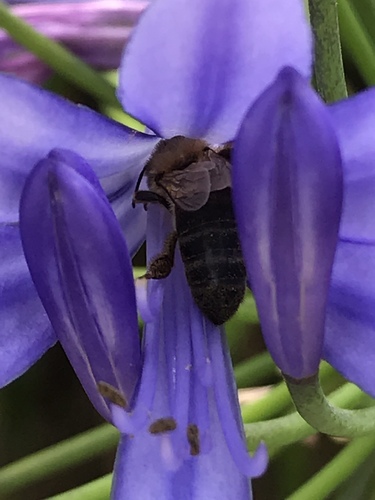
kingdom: Animalia
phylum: Arthropoda
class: Insecta
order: Hymenoptera
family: Apidae
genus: Apis
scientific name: Apis mellifera
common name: Honey bee
